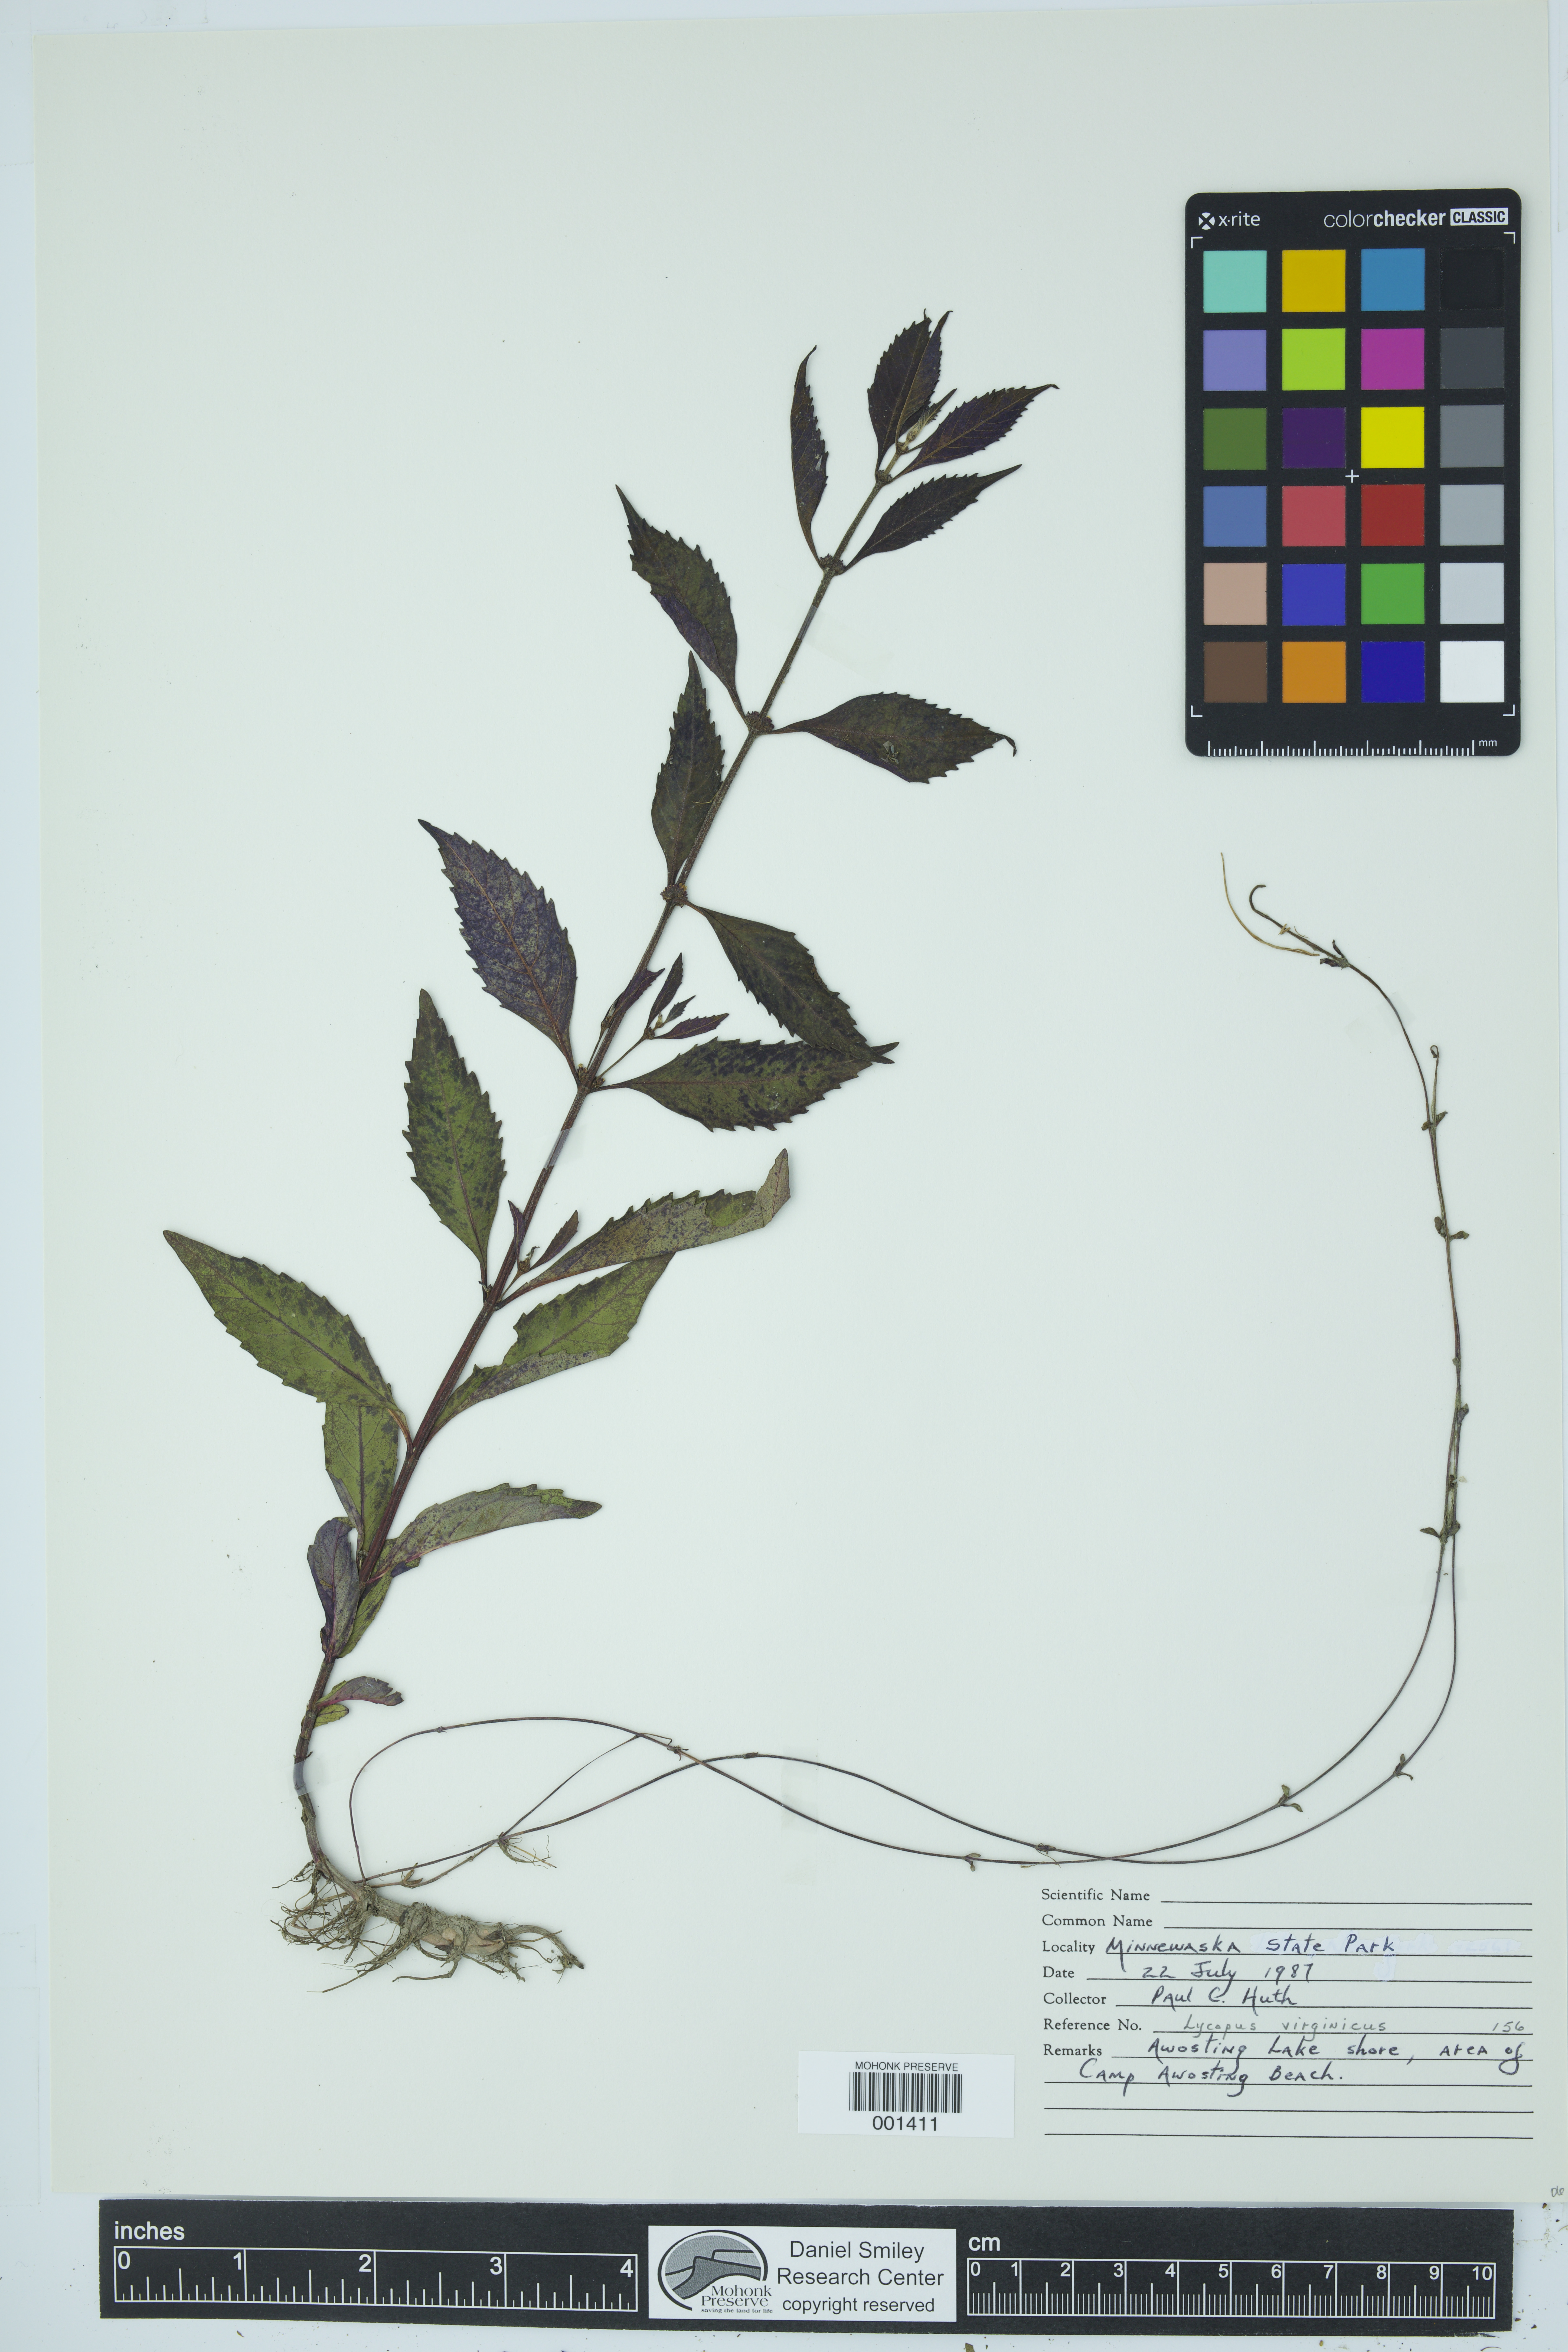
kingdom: Plantae
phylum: Tracheophyta
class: Magnoliopsida
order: Lamiales
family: Lamiaceae
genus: Lycopus
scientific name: Lycopus virginicus
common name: Bugleweed
